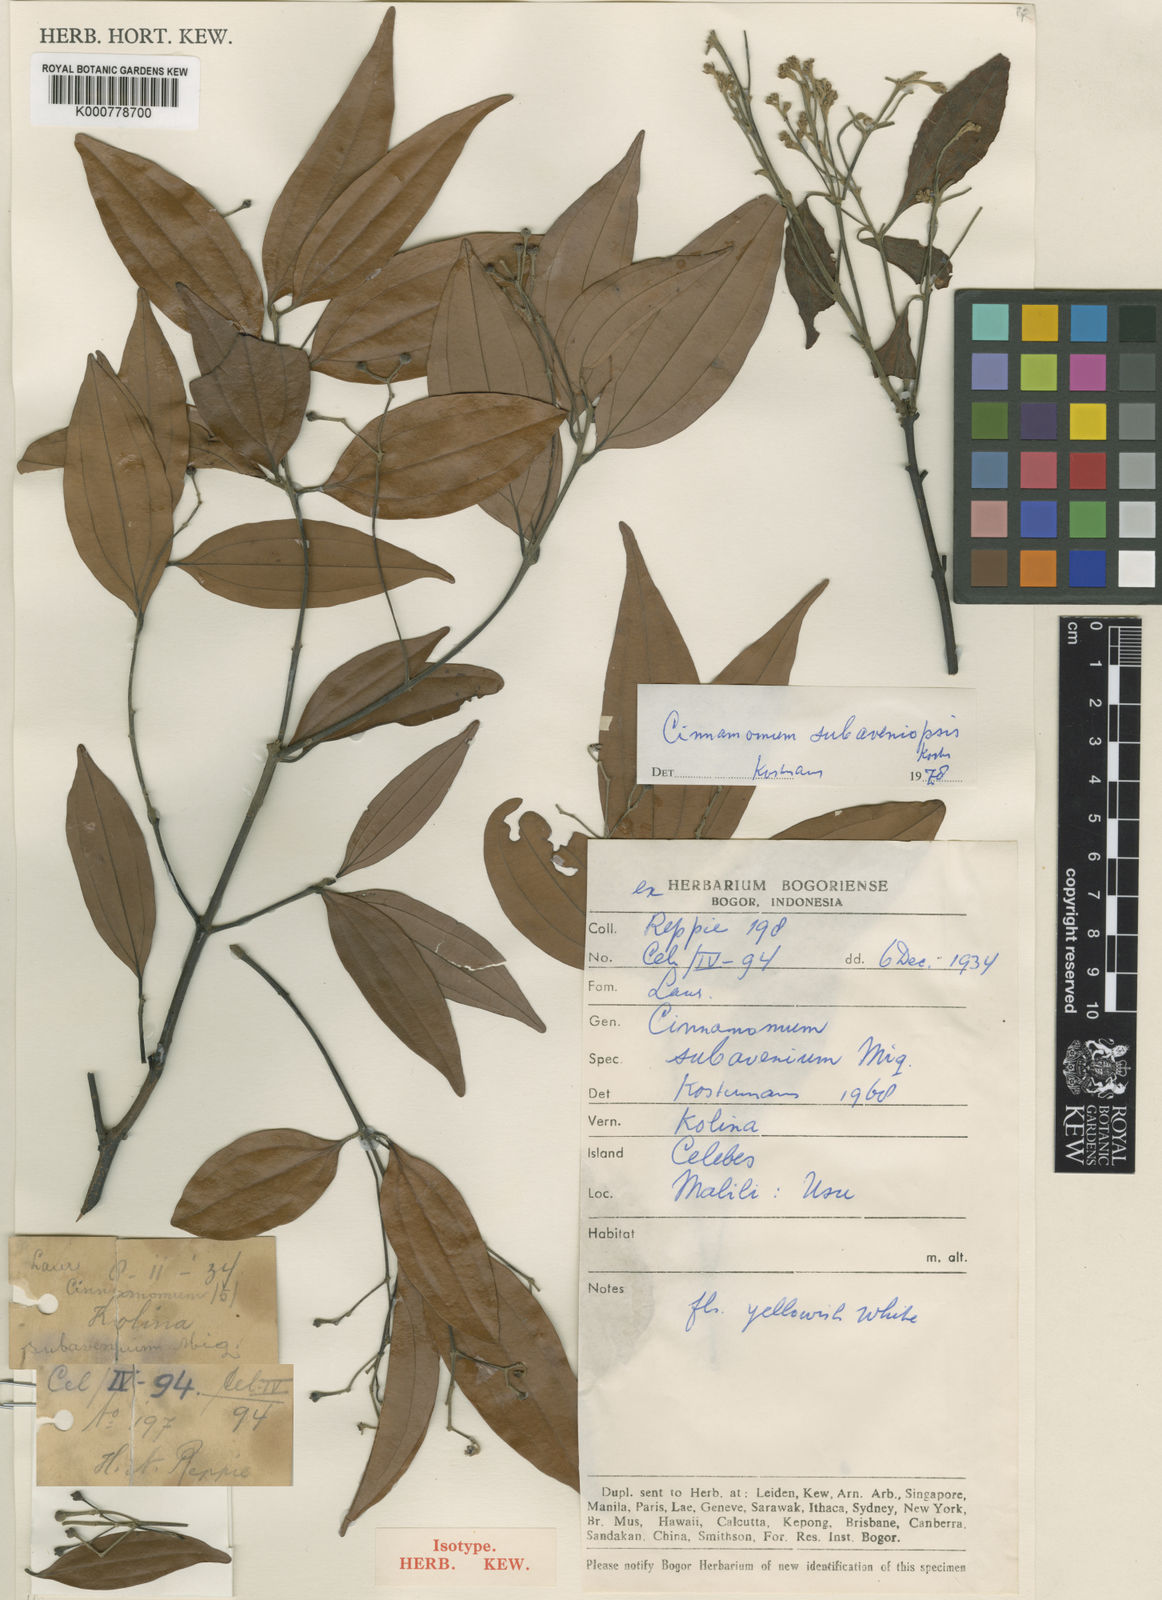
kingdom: Plantae
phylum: Tracheophyta
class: Magnoliopsida
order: Laurales
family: Lauraceae
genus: Cinnamomum
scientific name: Cinnamomum subaveniopsis
